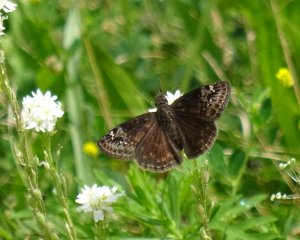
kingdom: Animalia
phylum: Arthropoda
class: Insecta
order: Lepidoptera
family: Hesperiidae
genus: Gesta
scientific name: Gesta
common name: Wild Indigo Duskywing
